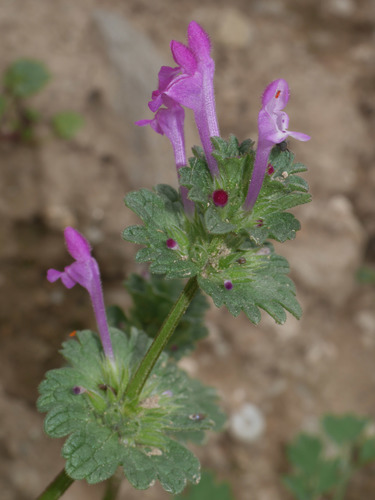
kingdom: Plantae
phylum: Tracheophyta
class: Magnoliopsida
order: Lamiales
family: Lamiaceae
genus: Lamium
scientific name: Lamium amplexicaule
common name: Henbit dead-nettle
